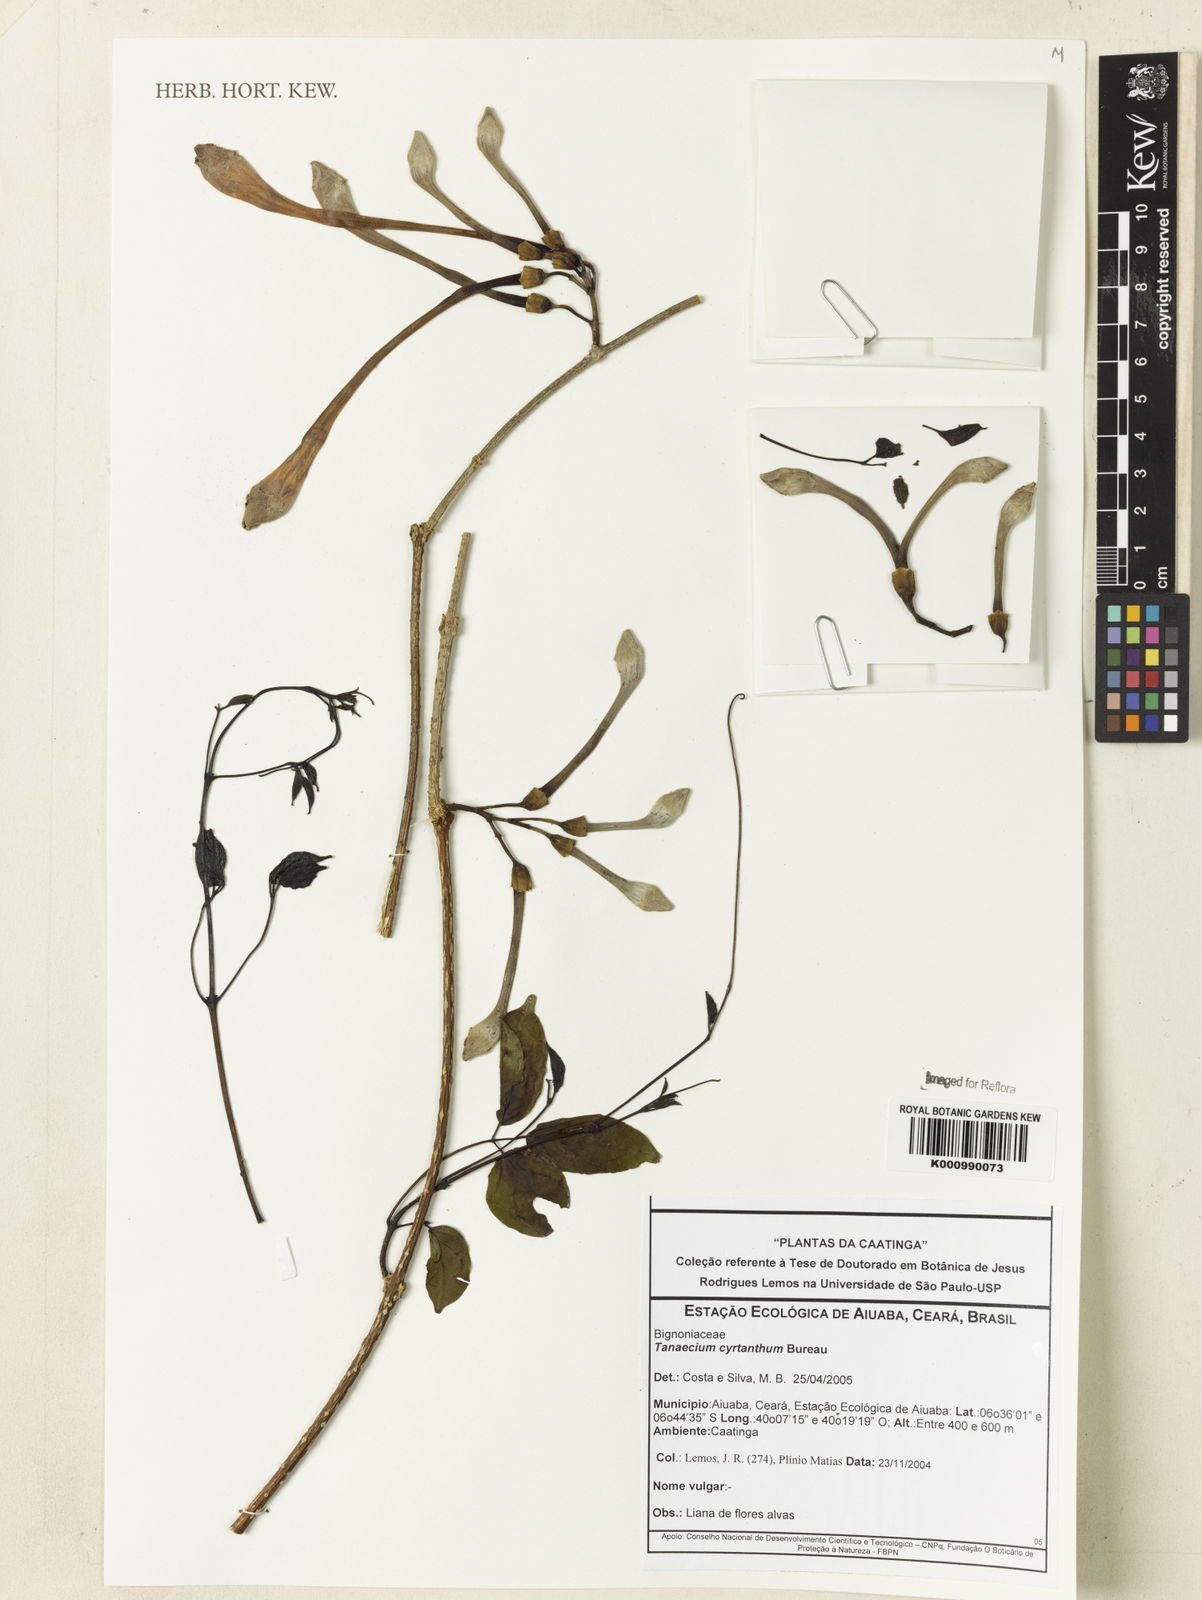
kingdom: Plantae
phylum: Tracheophyta
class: Magnoliopsida
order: Lamiales
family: Bignoniaceae
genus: Tanaecium
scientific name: Tanaecium cyrtanthum
